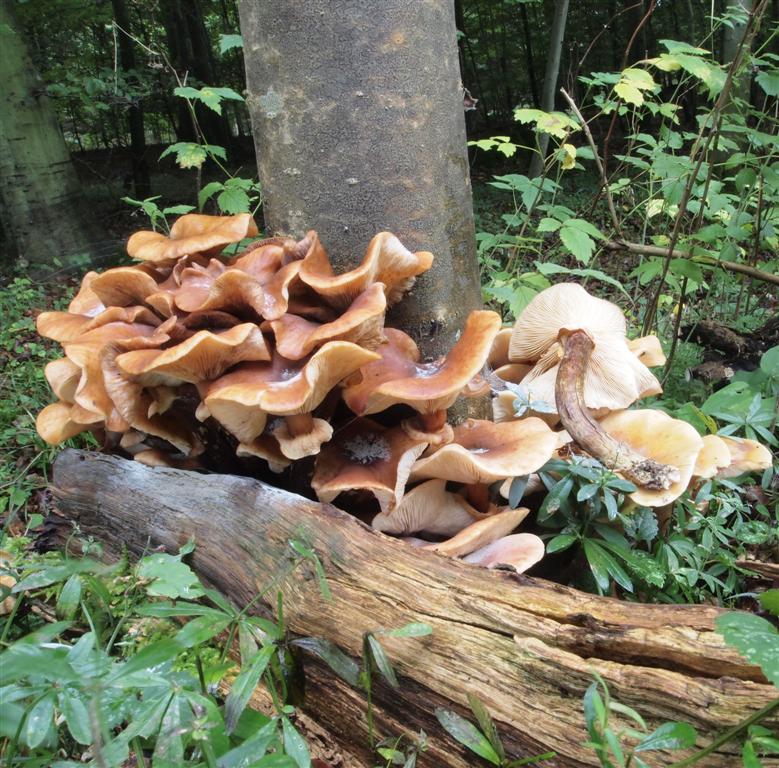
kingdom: Fungi
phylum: Basidiomycota
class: Agaricomycetes
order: Agaricales
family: Physalacriaceae
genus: Armillaria
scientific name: Armillaria mellea
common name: ægte honningsvamp
